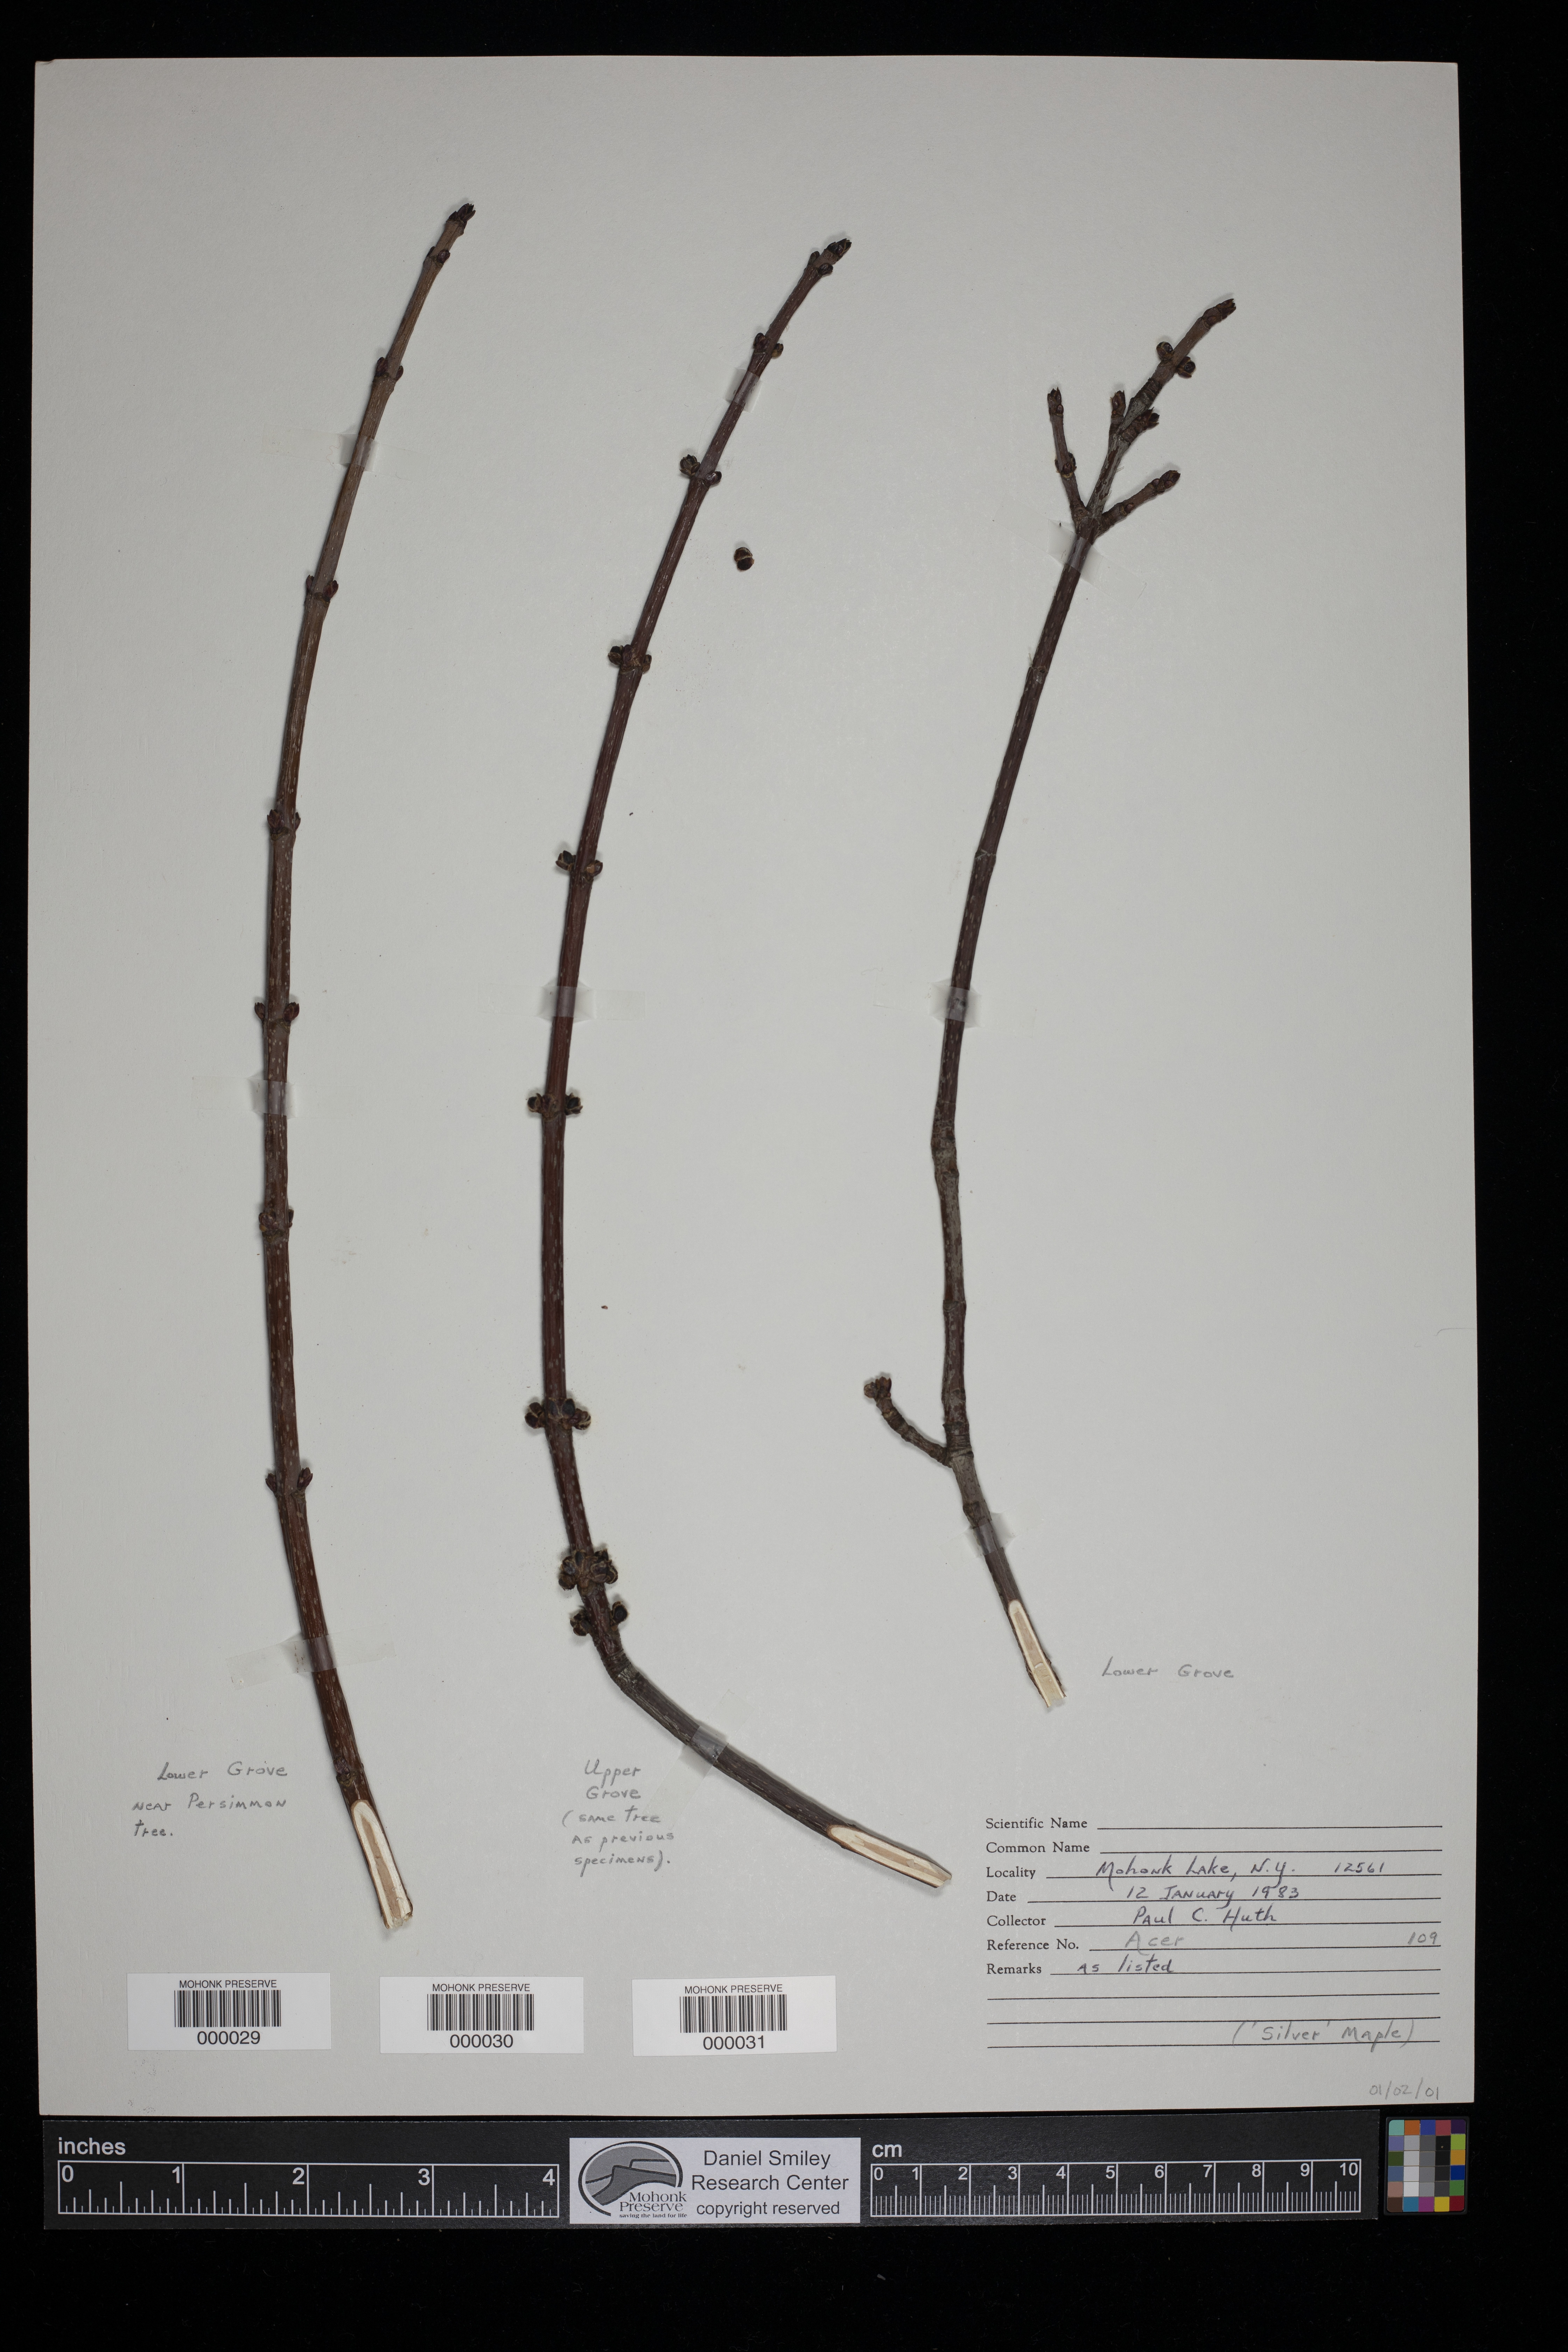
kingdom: Plantae
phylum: Tracheophyta
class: Magnoliopsida
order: Sapindales
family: Sapindaceae
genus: Acer
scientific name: Acer
